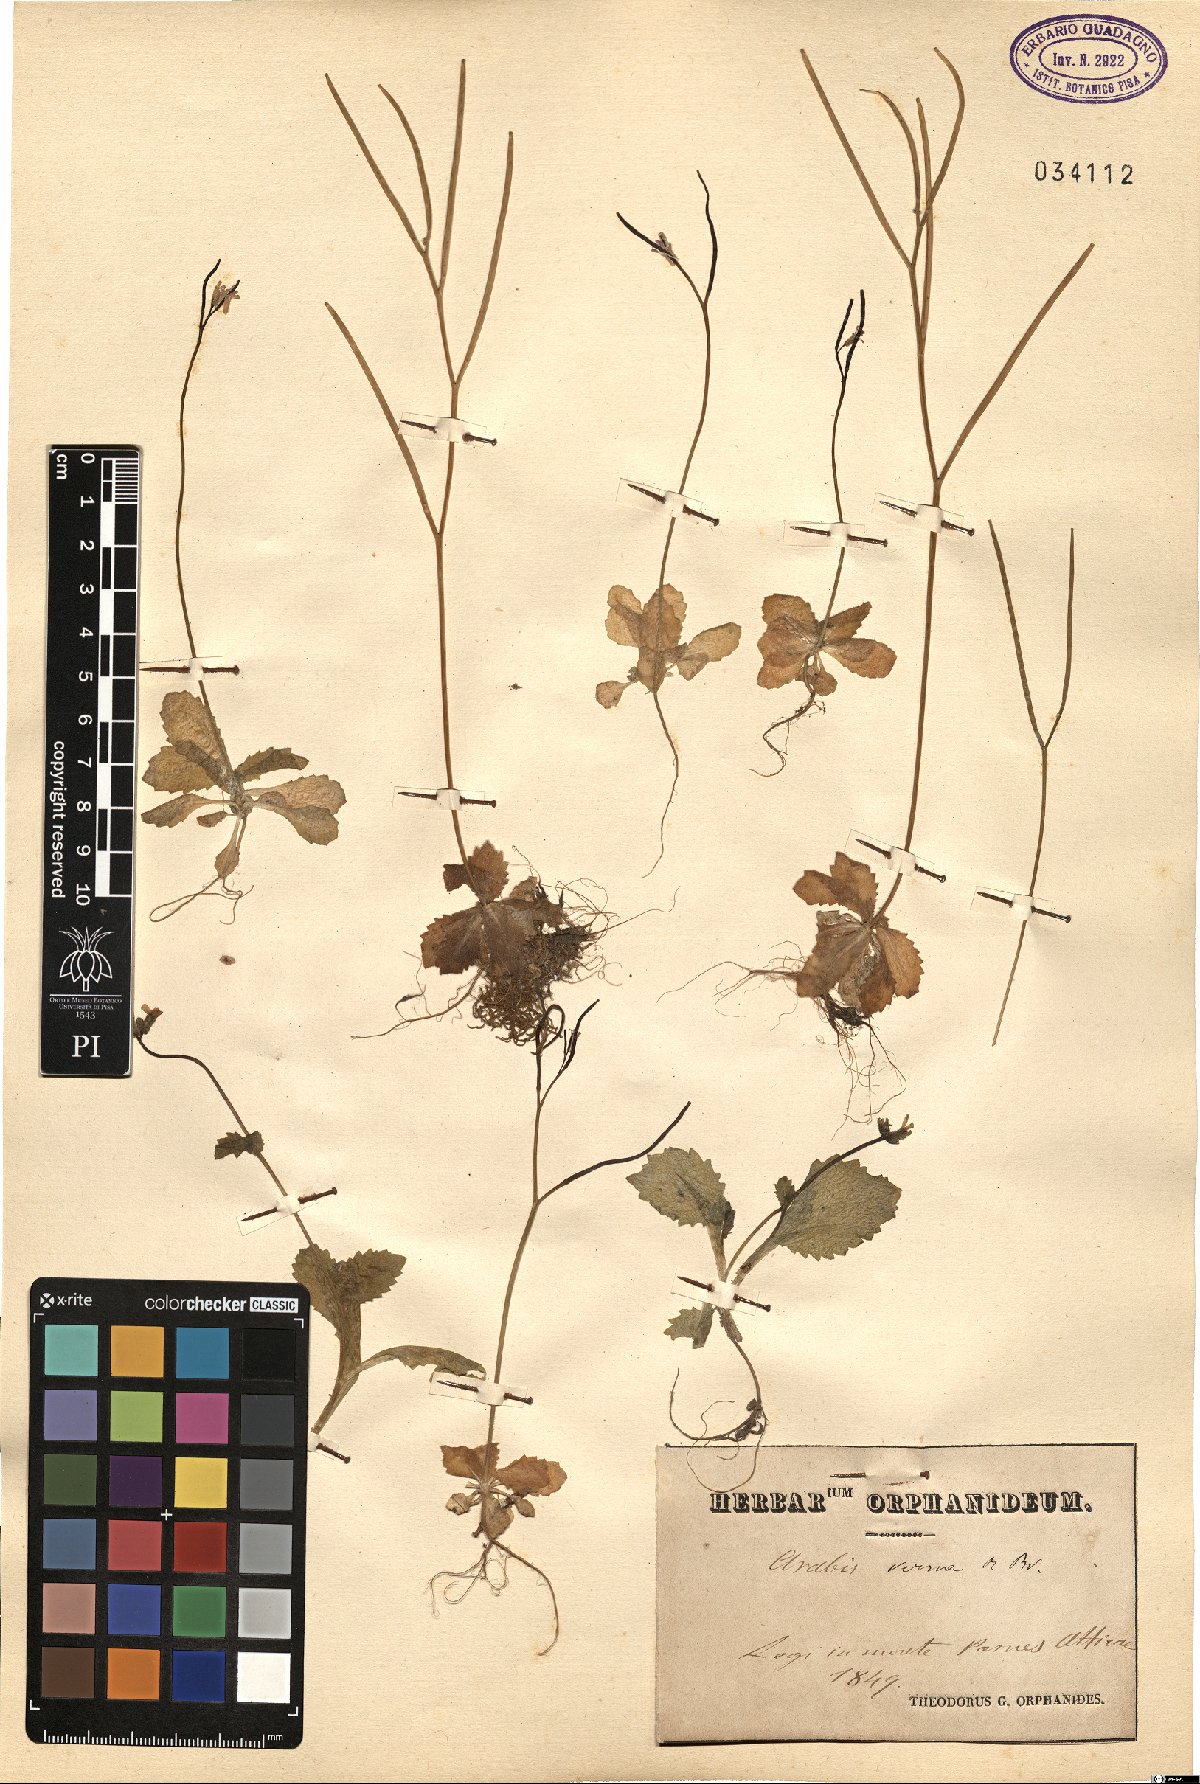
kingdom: Plantae
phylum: Tracheophyta
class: Magnoliopsida
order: Brassicales
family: Brassicaceae
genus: Arabis
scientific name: Arabis verna
